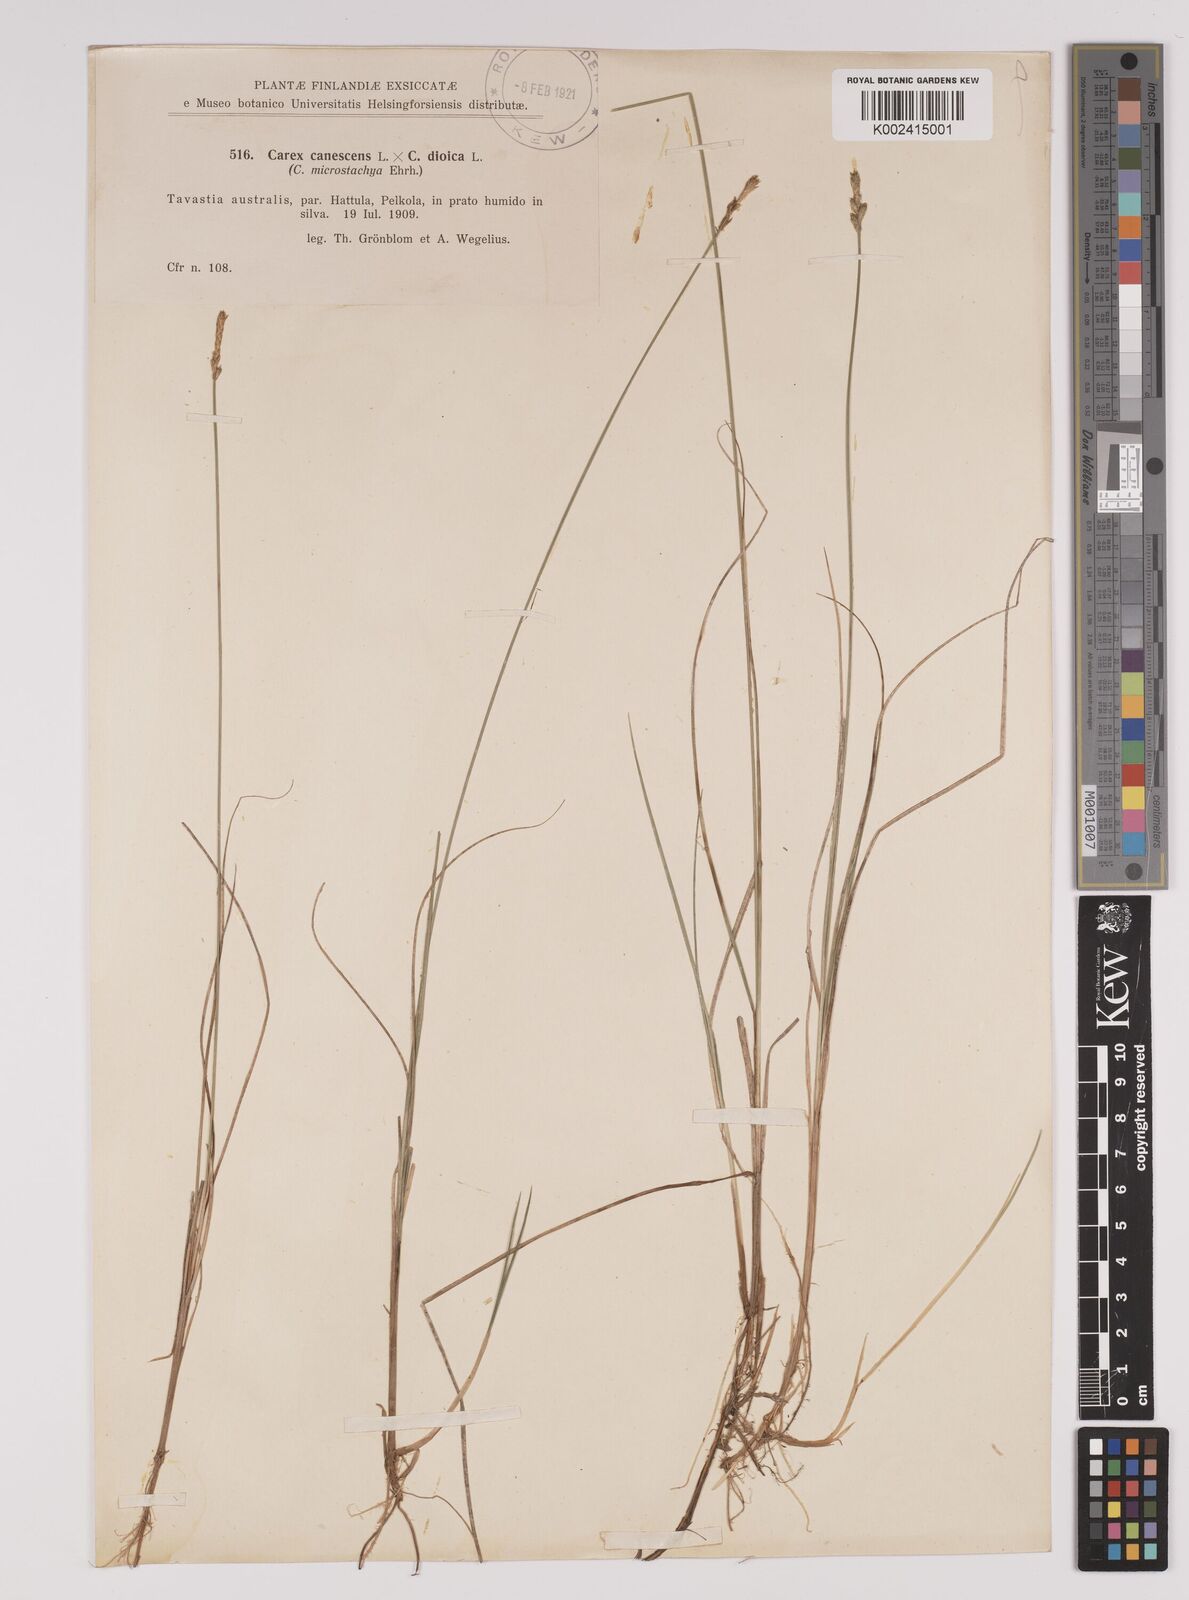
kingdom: Plantae
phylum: Tracheophyta
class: Liliopsida
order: Poales
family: Cyperaceae
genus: Carex
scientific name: Carex dioica
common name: Dioecious sedge
